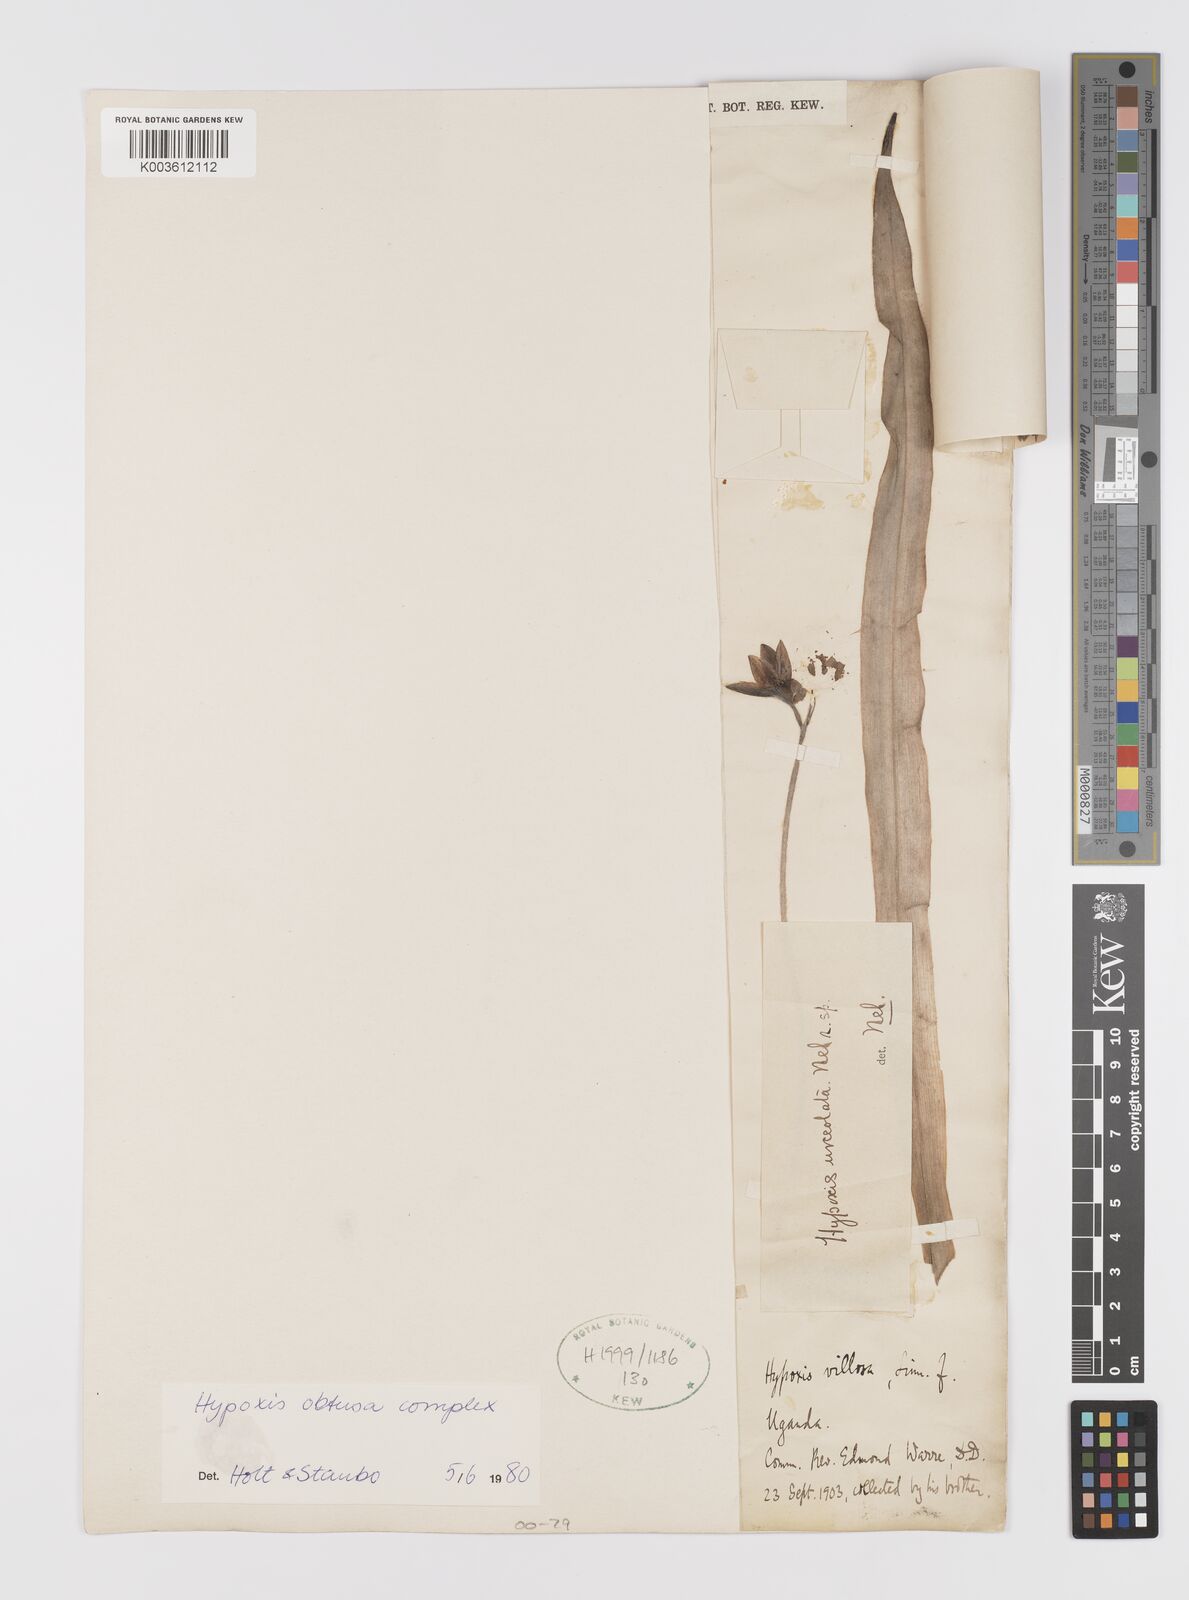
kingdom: Plantae
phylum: Tracheophyta
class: Liliopsida
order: Asparagales
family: Hypoxidaceae
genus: Hypoxis
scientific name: Hypoxis urceolata
